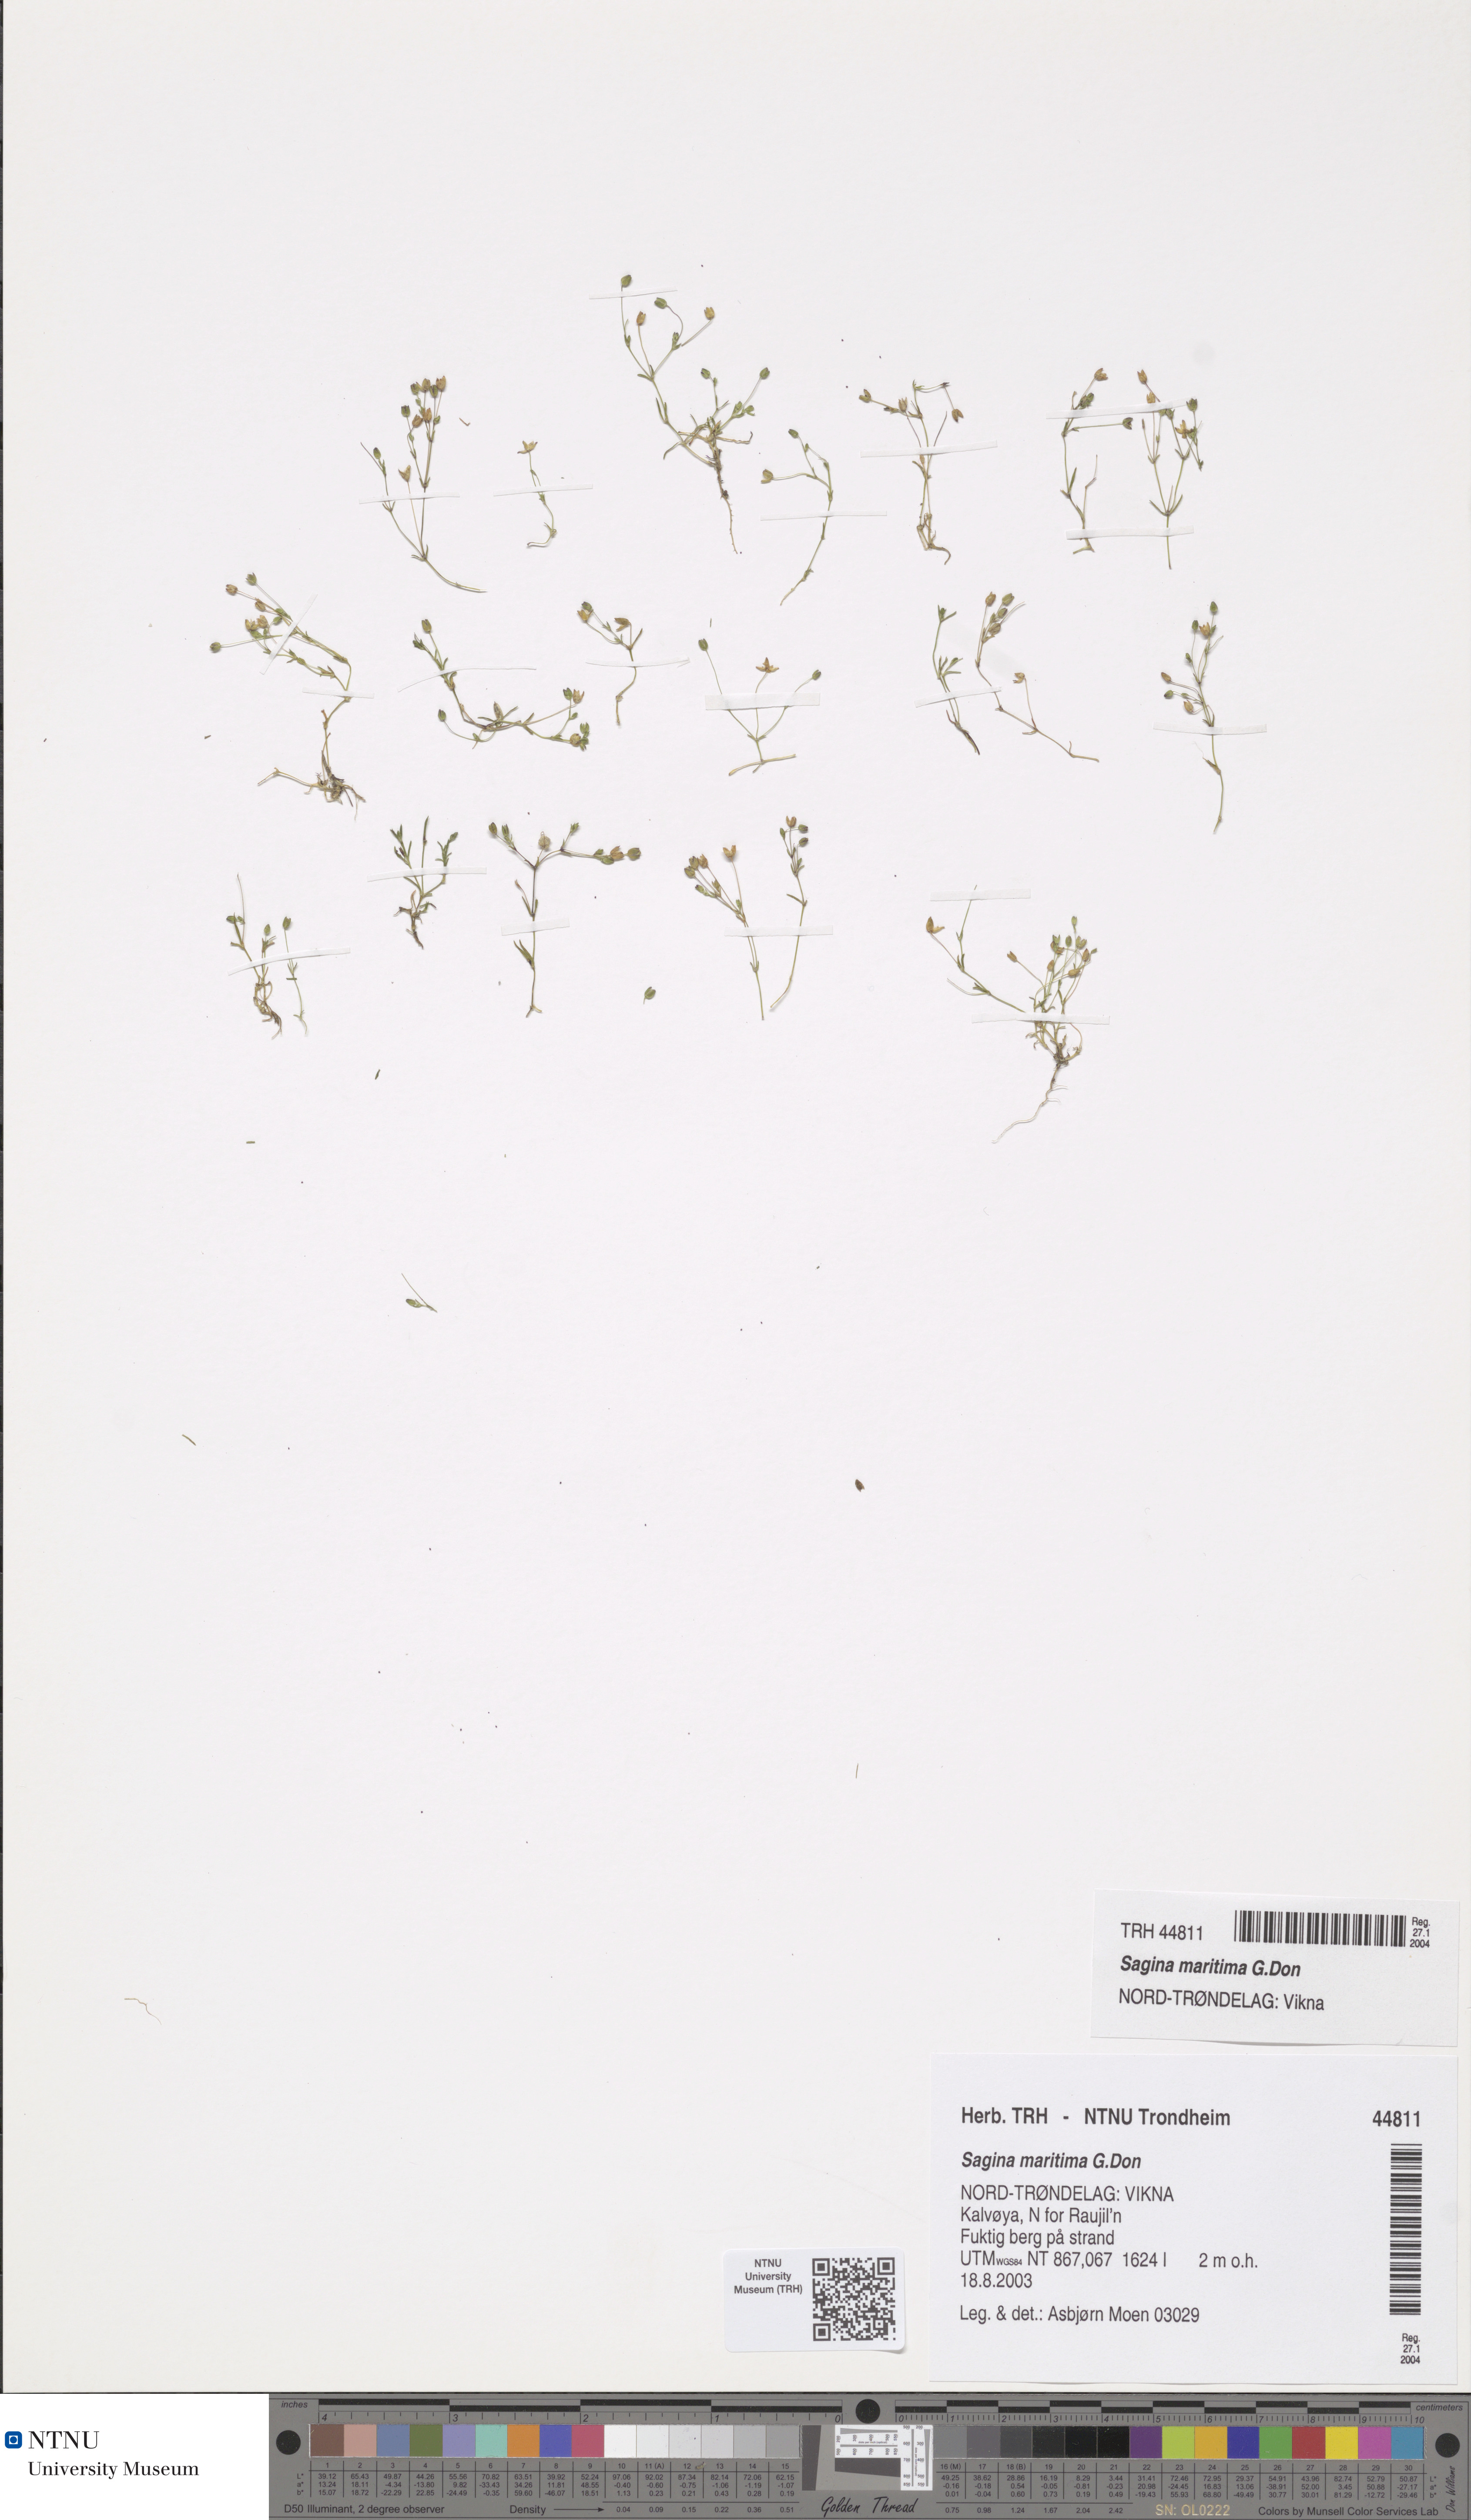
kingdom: Plantae
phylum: Tracheophyta
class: Magnoliopsida
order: Caryophyllales
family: Caryophyllaceae
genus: Sagina
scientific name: Sagina maritima
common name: Sea pearlwort
